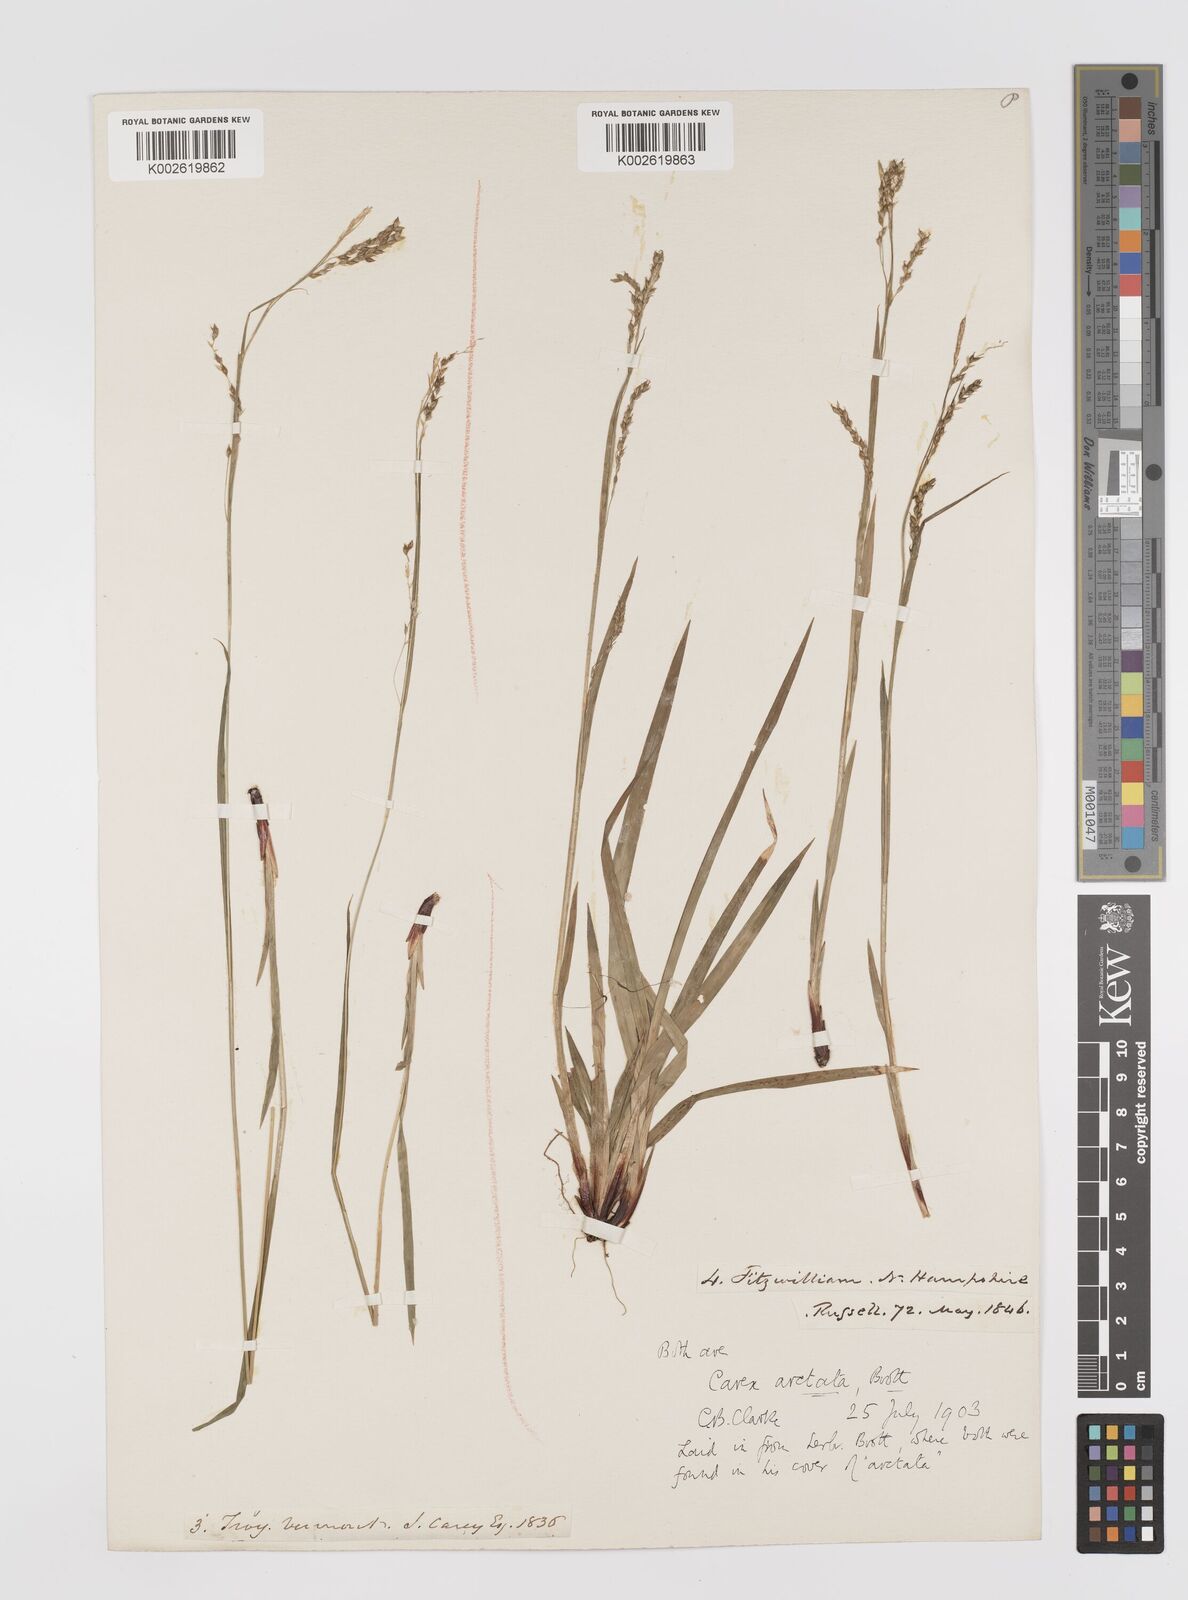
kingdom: Plantae
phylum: Tracheophyta
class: Liliopsida
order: Poales
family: Cyperaceae
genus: Carex
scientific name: Carex arctata
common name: Black sedge
